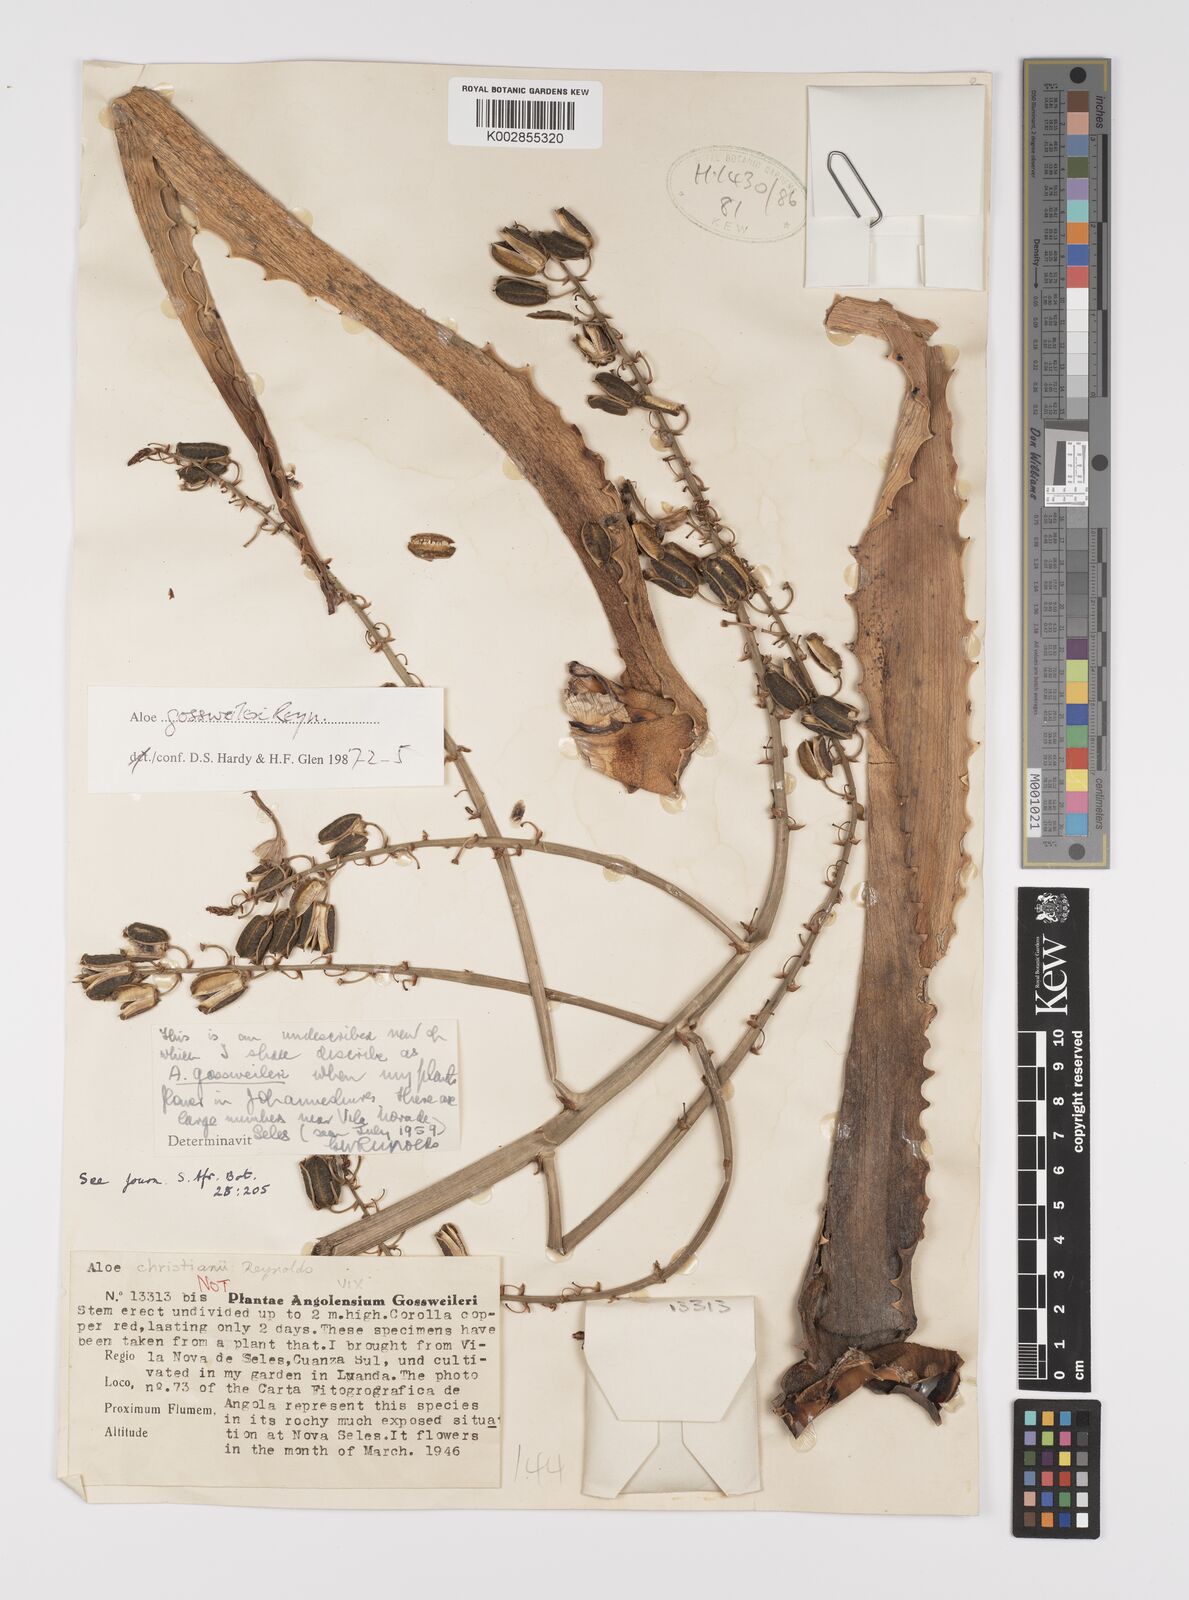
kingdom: Plantae
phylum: Tracheophyta
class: Liliopsida
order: Asparagales
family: Asphodelaceae
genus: Aloe
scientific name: Aloe gossweileri
